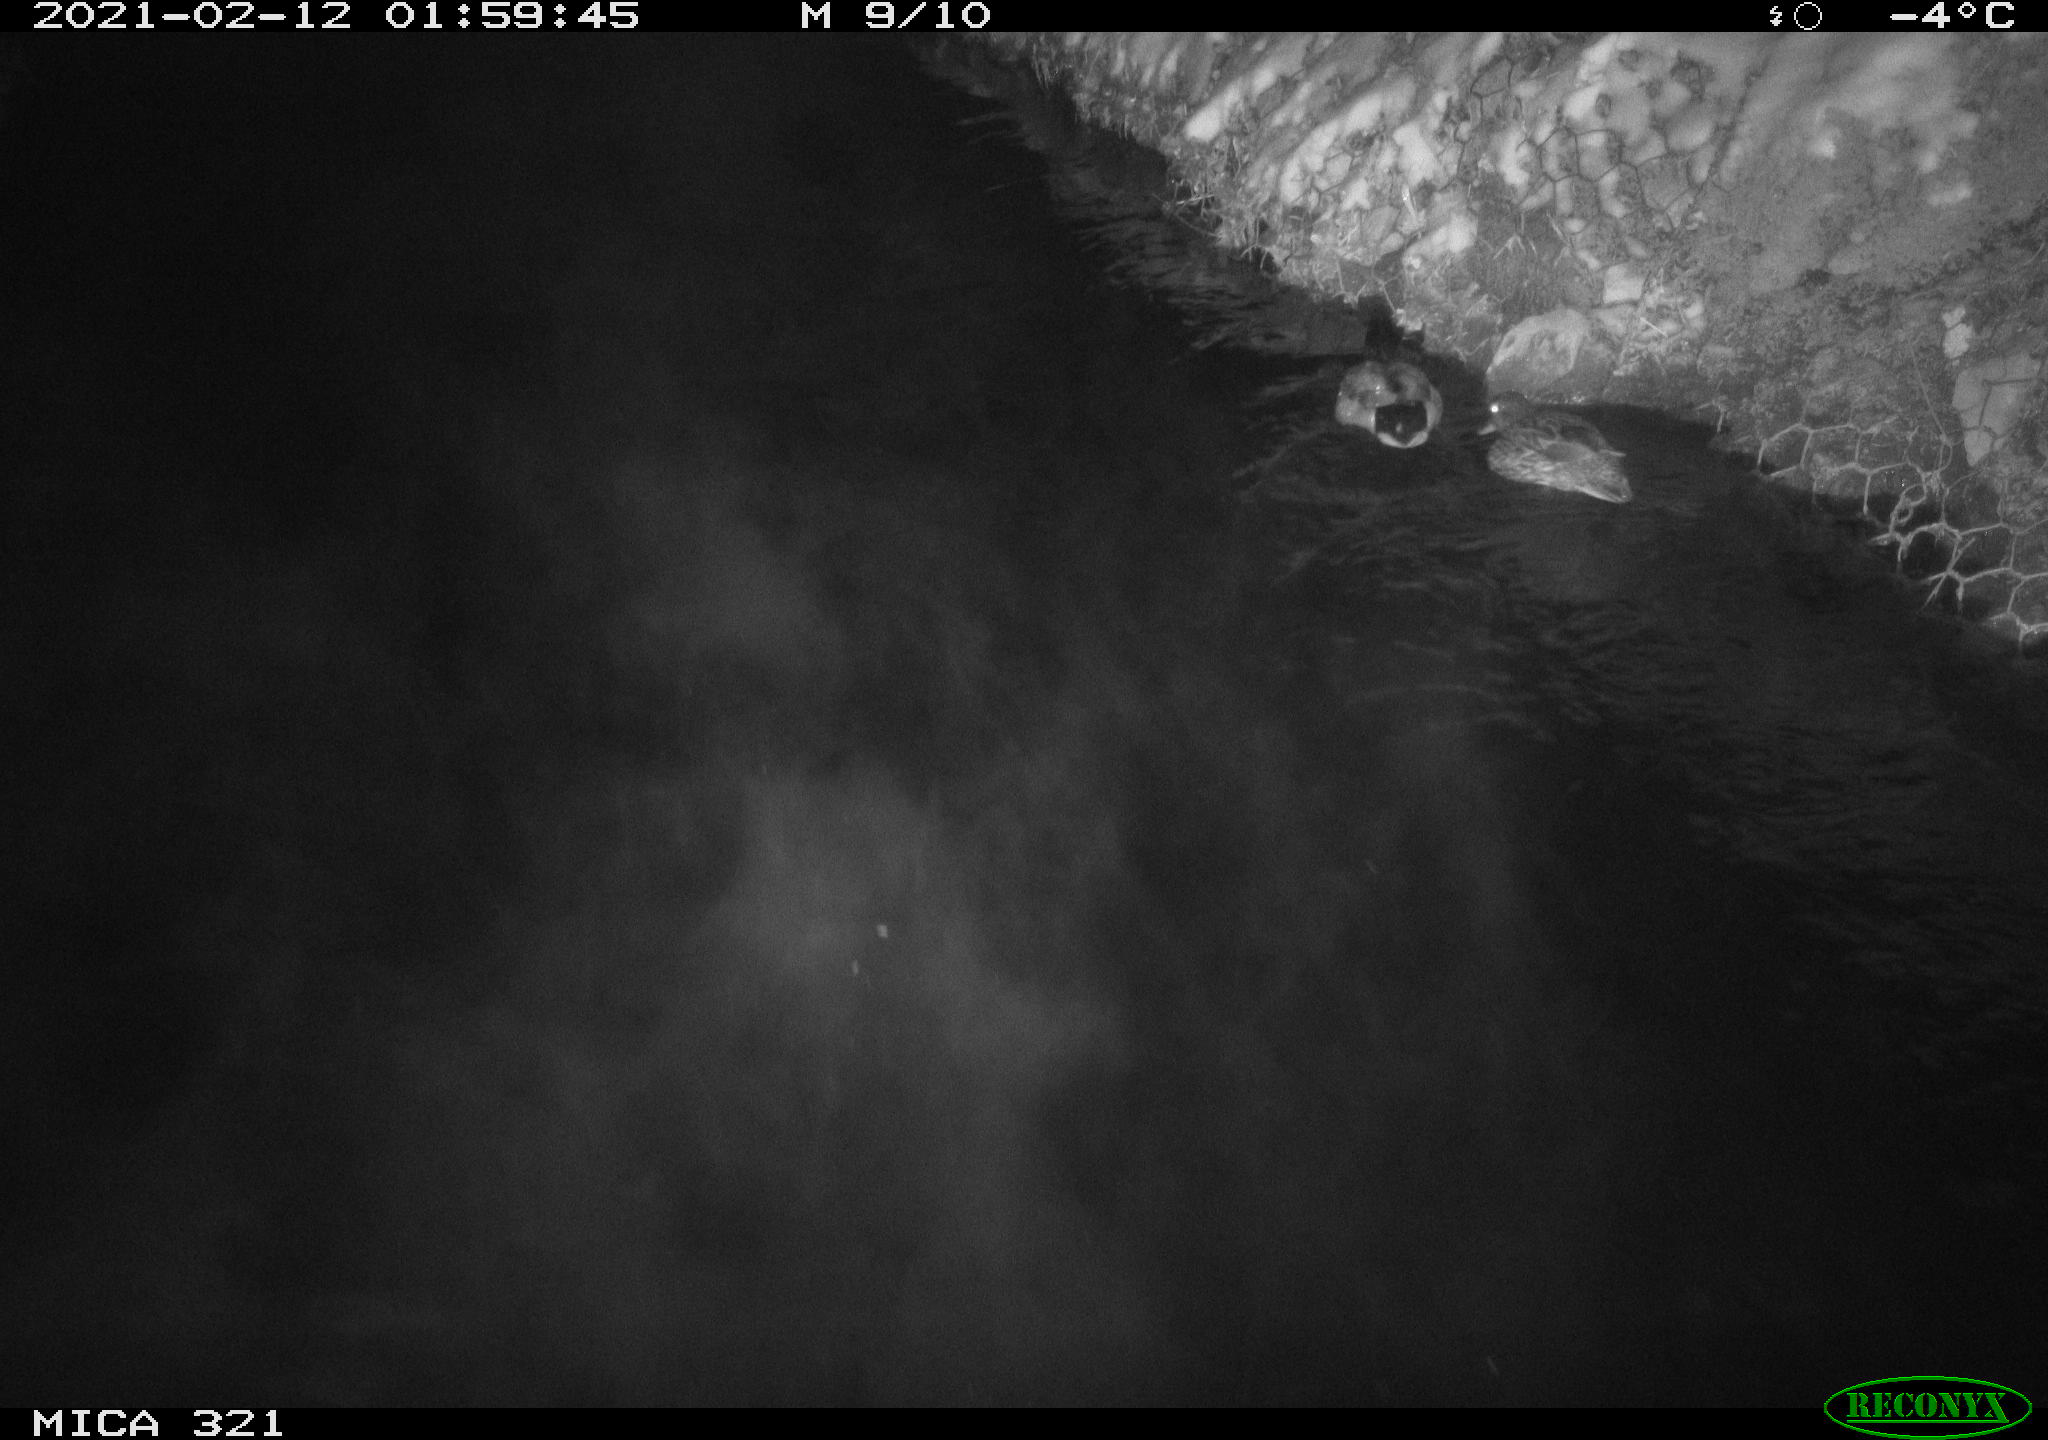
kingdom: Animalia
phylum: Chordata
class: Aves
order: Anseriformes
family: Anatidae
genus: Anas
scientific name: Anas platyrhynchos
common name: Mallard
